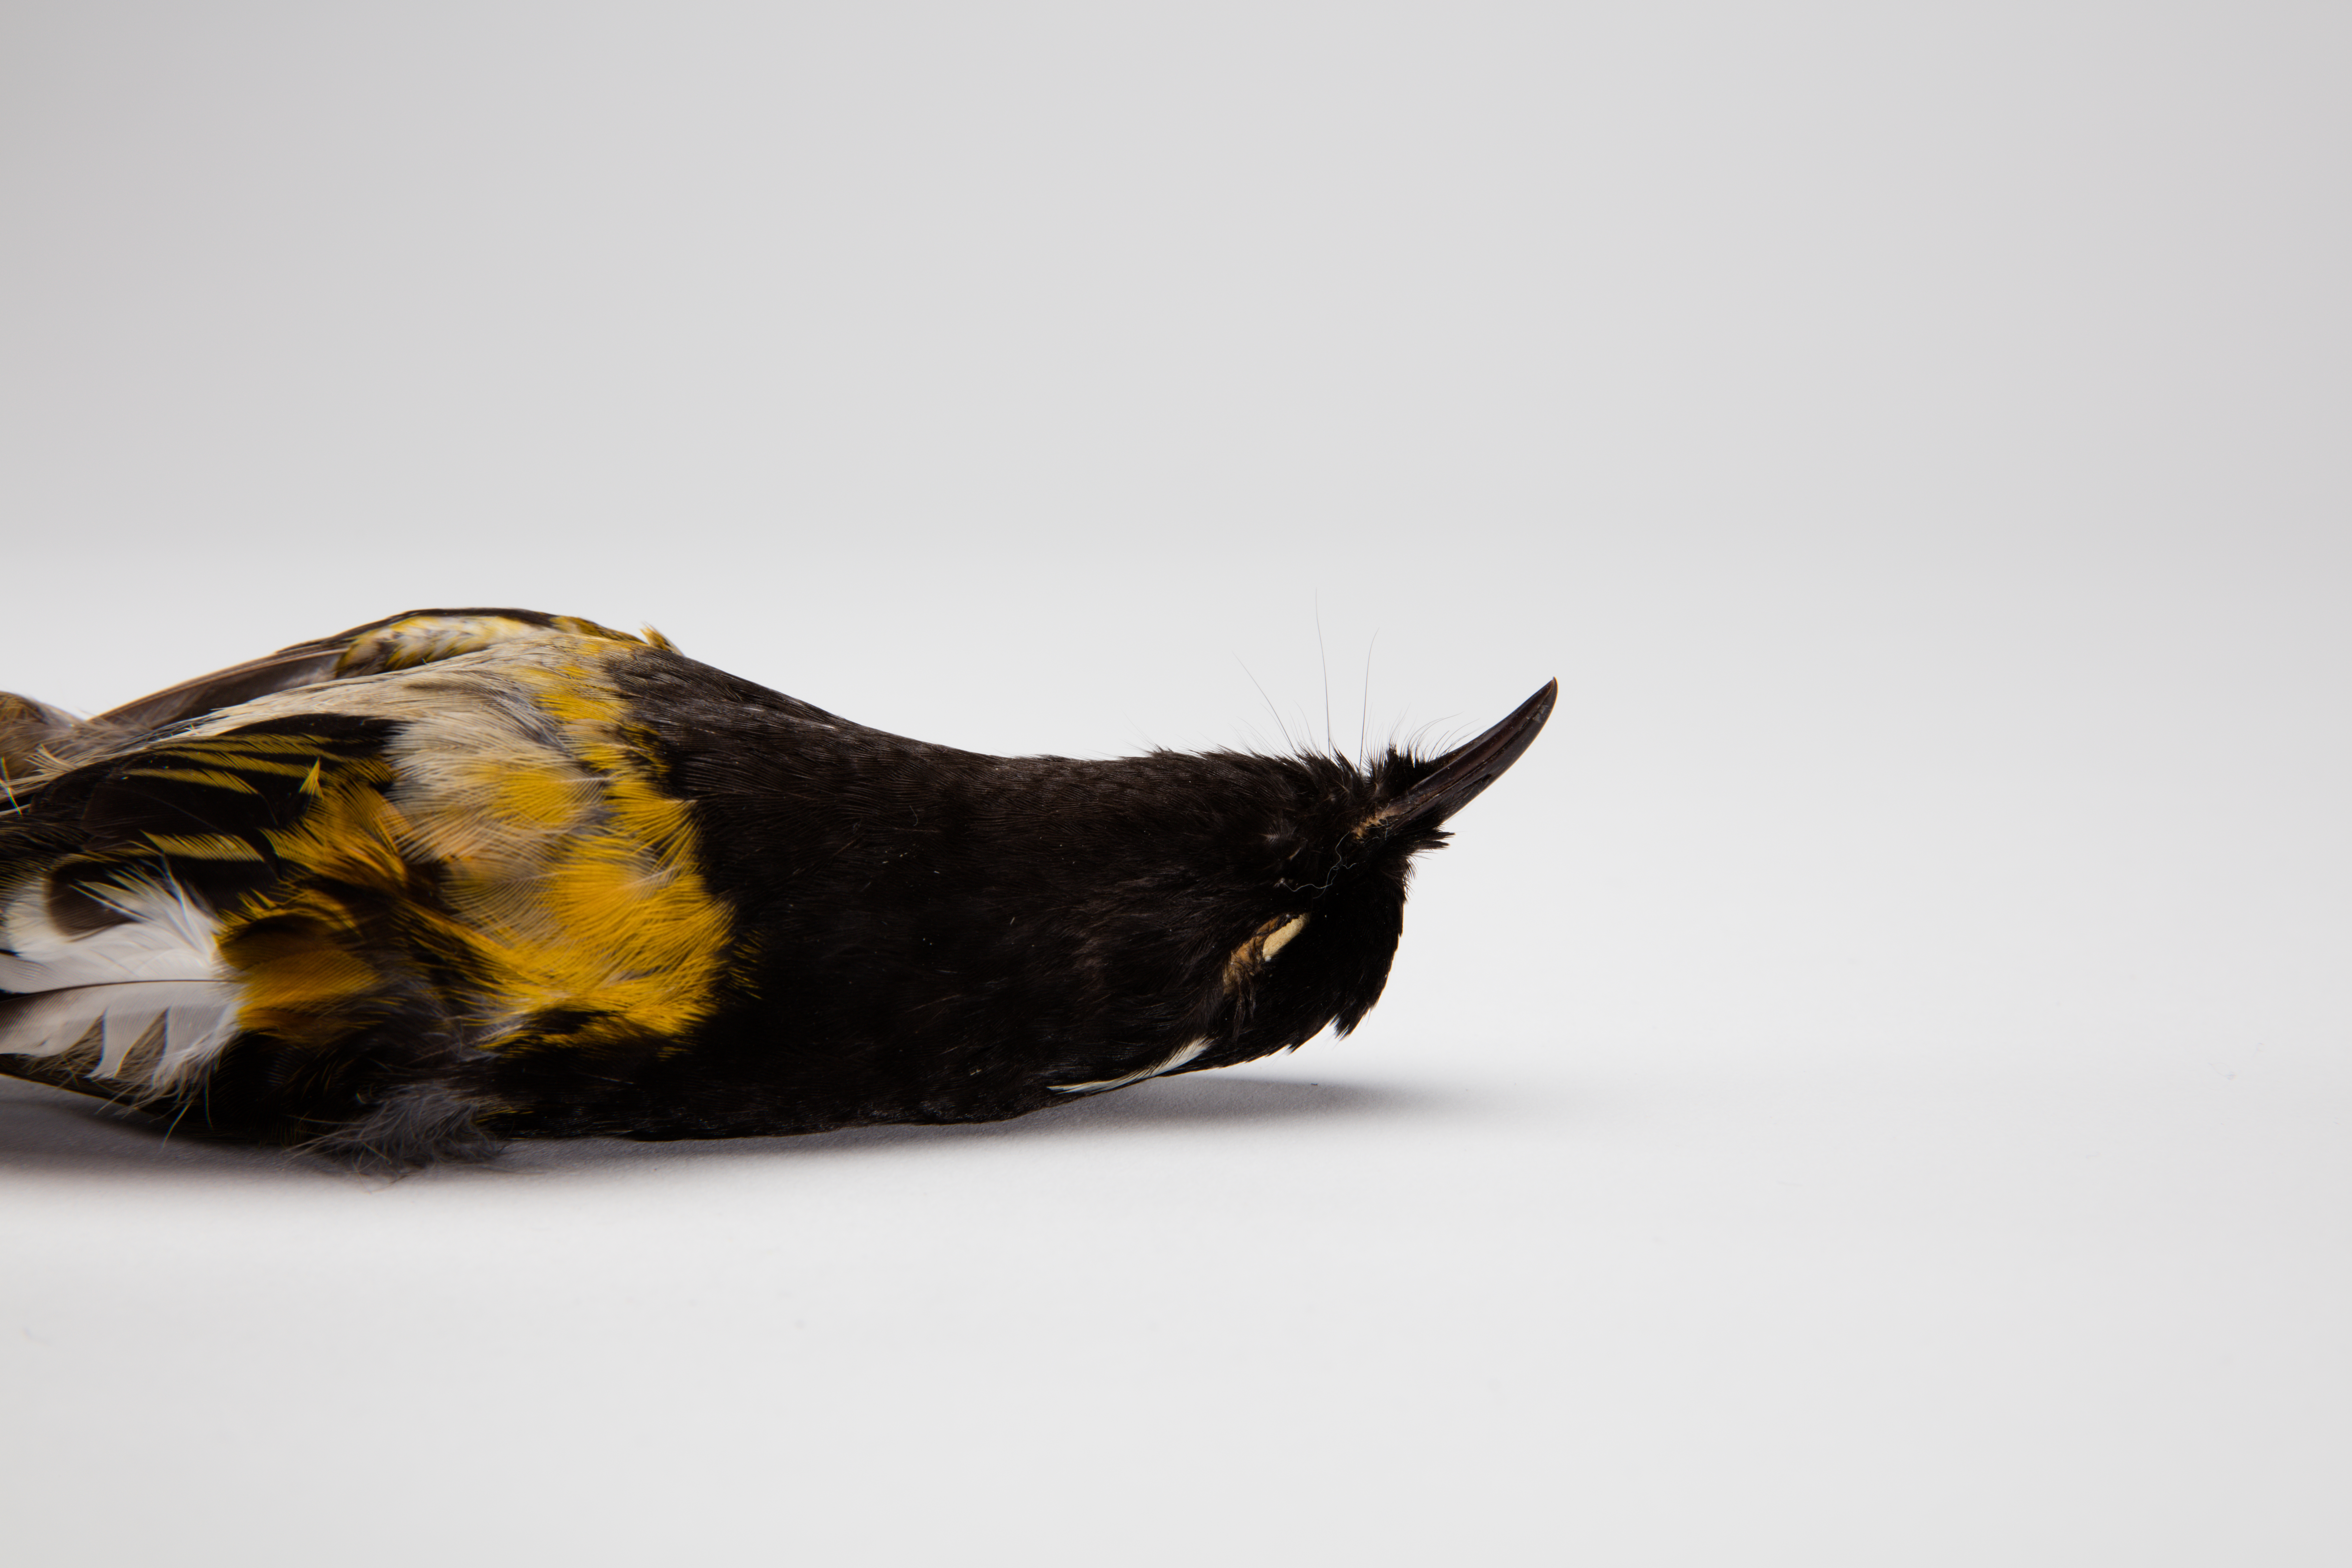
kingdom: Animalia
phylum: Chordata
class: Aves
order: Passeriformes
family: Notiomystidae
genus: Notiomystis
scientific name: Notiomystis cincta
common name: Stitchbird
